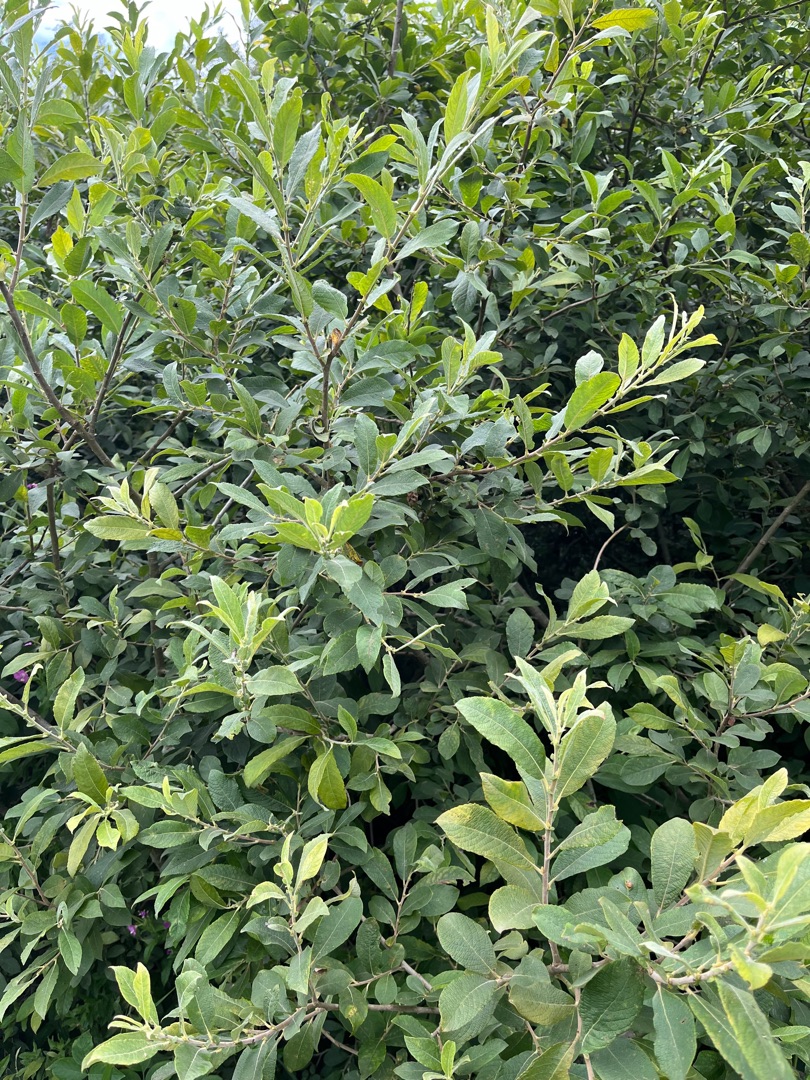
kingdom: Plantae
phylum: Tracheophyta
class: Magnoliopsida
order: Malpighiales
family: Salicaceae
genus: Salix
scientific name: Salix cinerea
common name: Grå-pil
